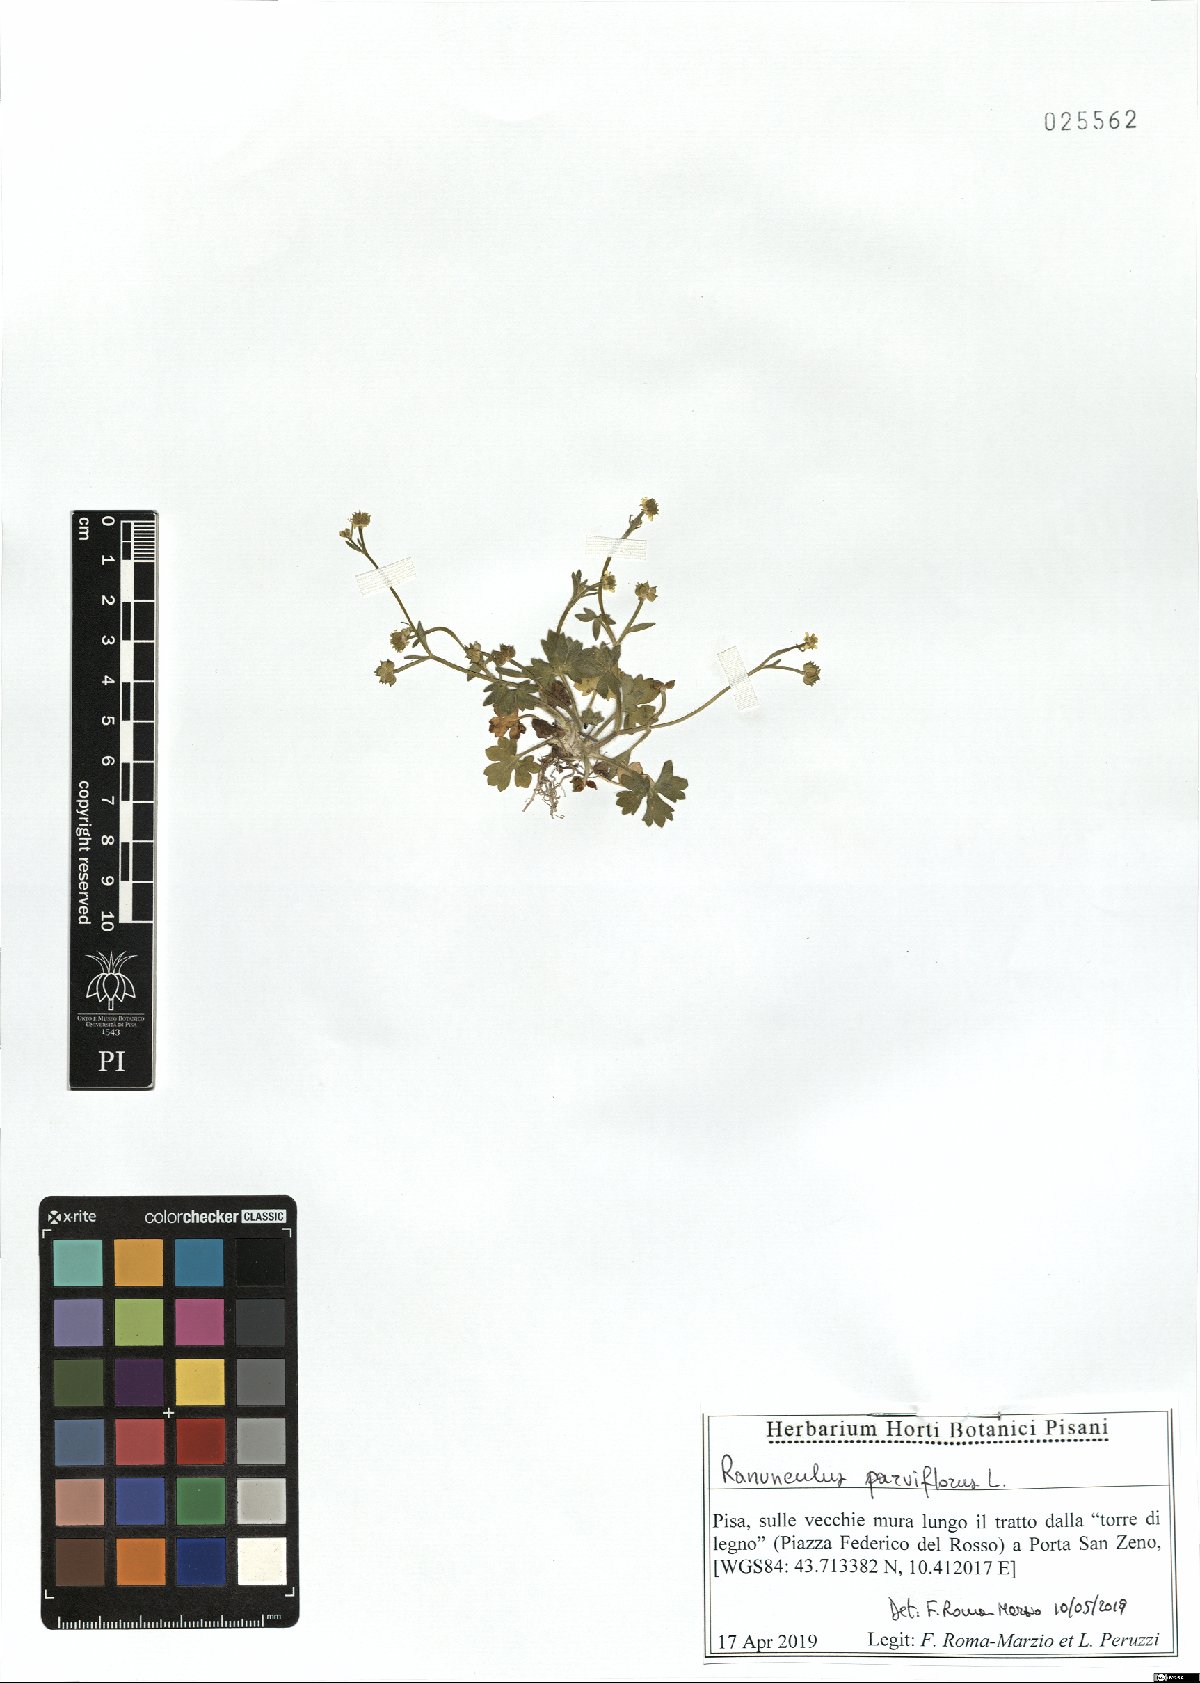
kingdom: Plantae
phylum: Tracheophyta
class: Magnoliopsida
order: Ranunculales
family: Ranunculaceae
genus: Ranunculus
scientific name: Ranunculus parviflorus
